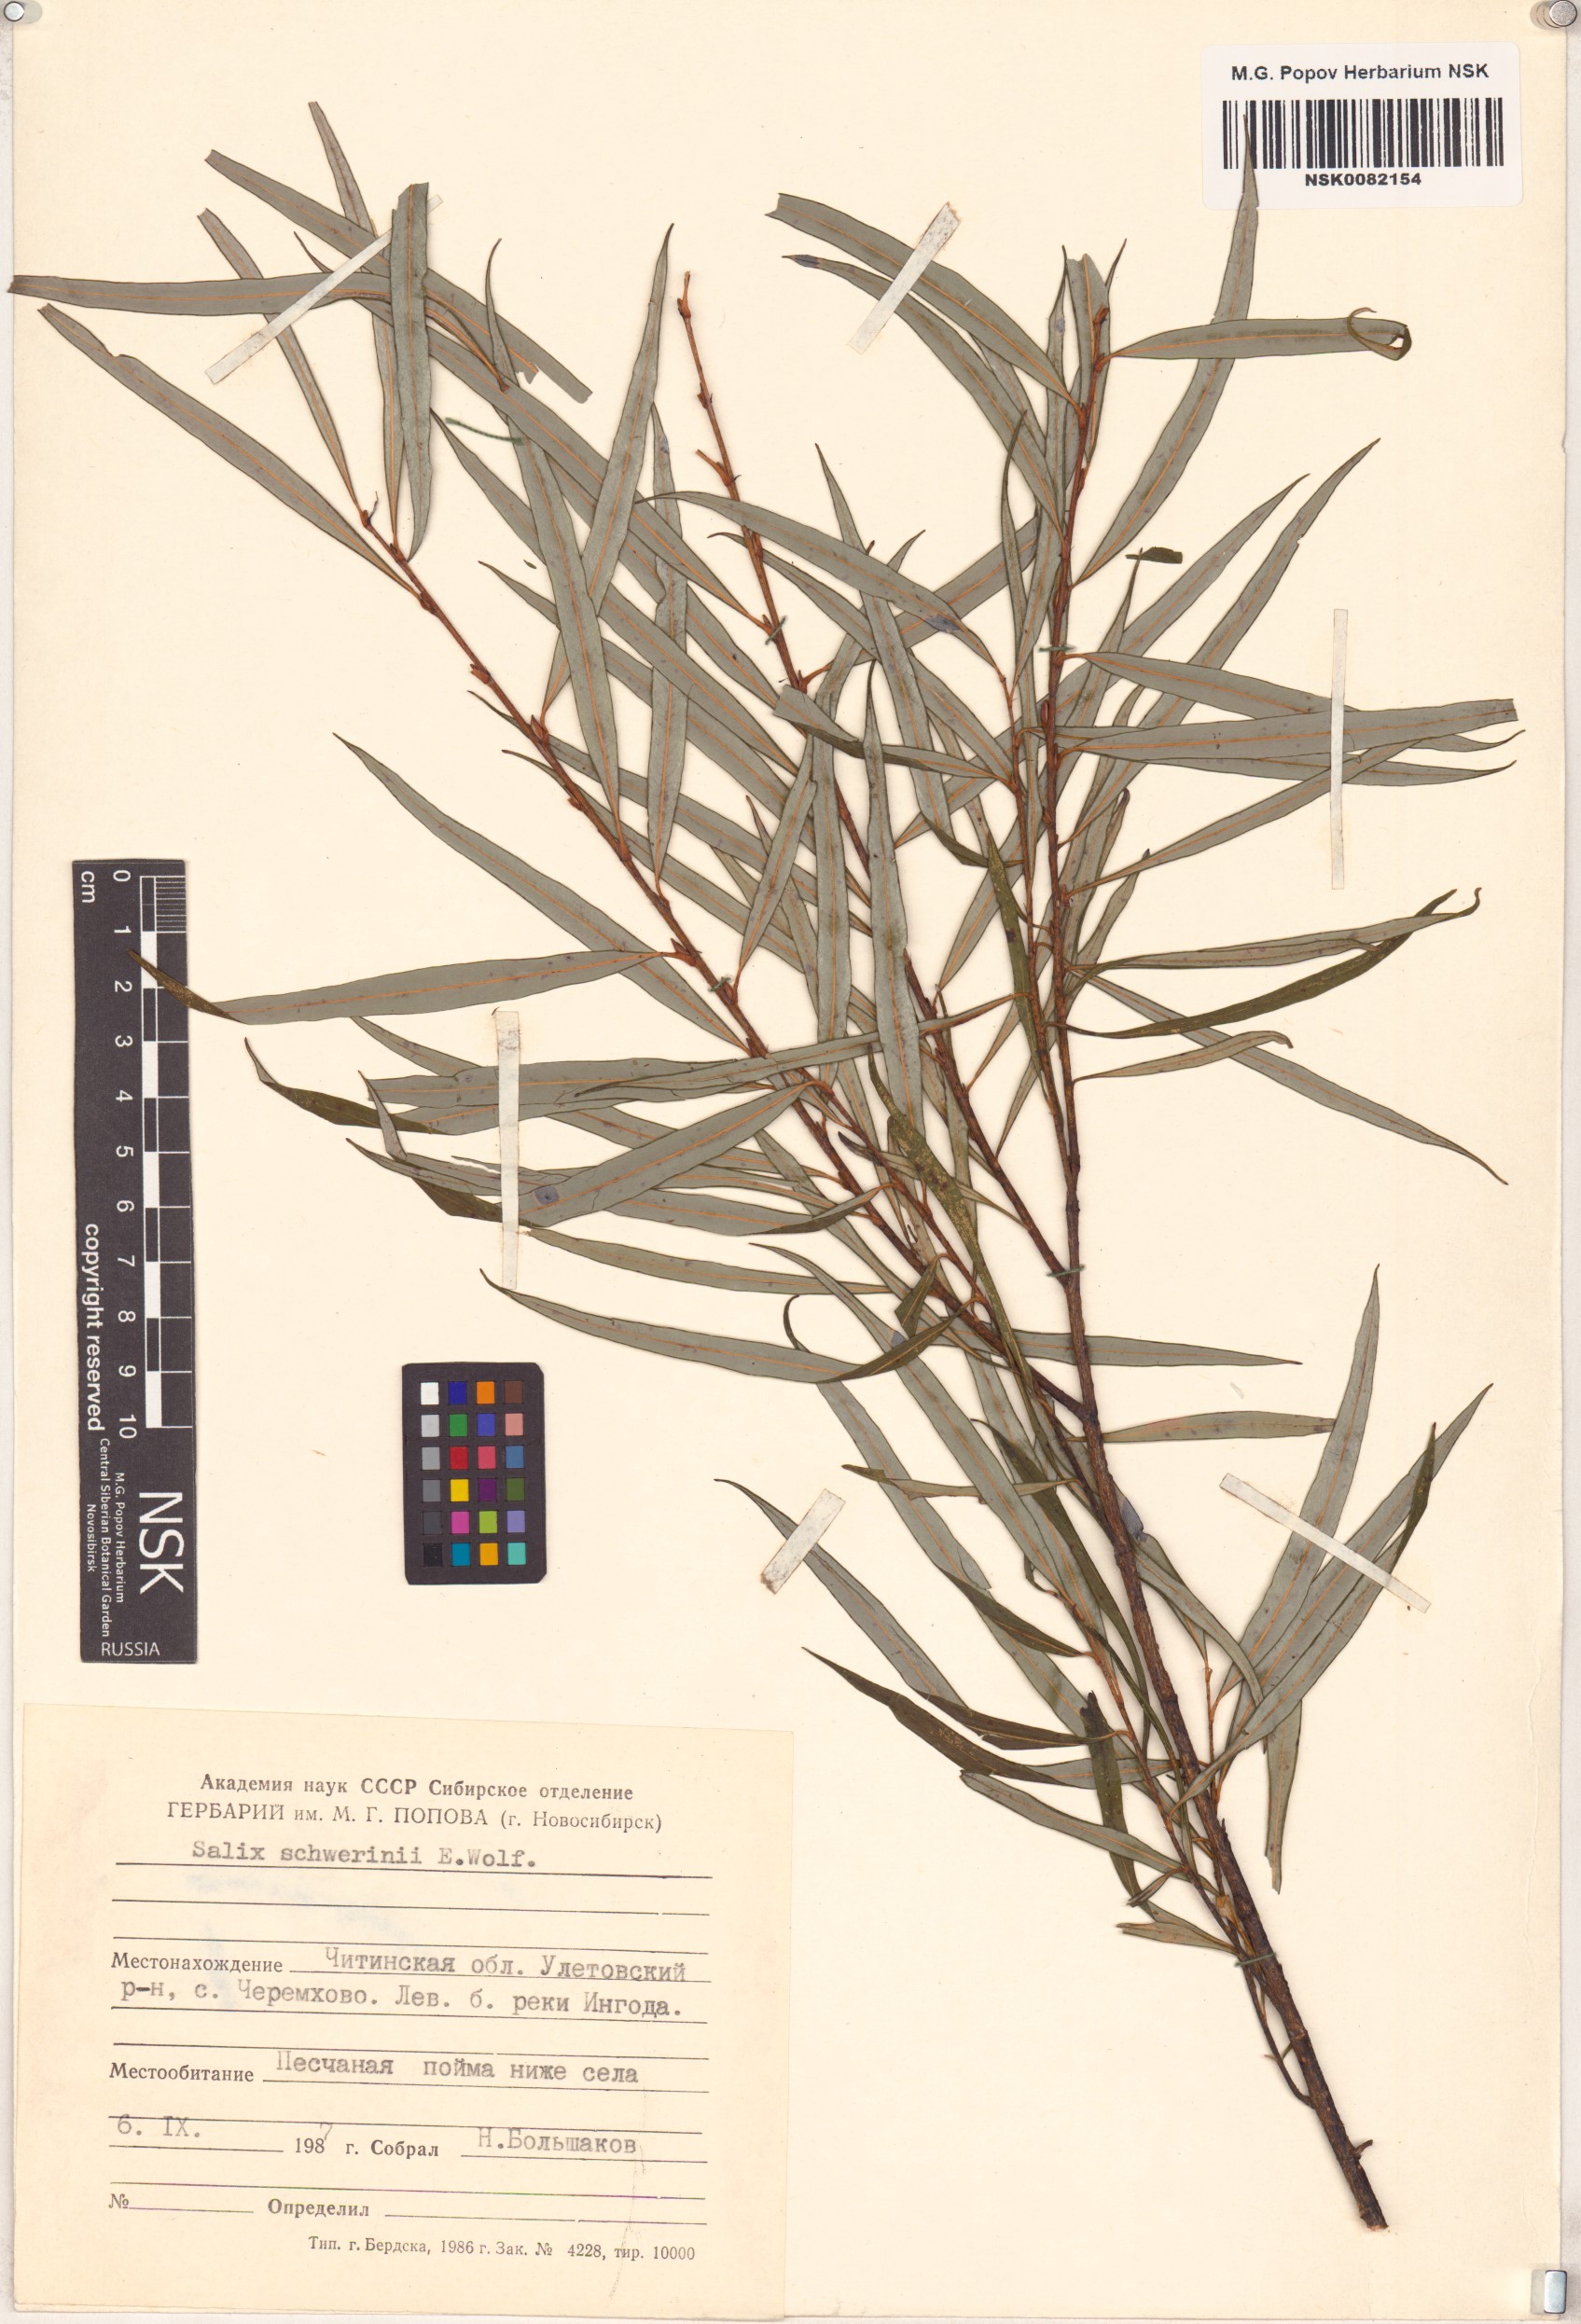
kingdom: Plantae
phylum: Tracheophyta
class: Magnoliopsida
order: Malpighiales
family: Salicaceae
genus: Salix
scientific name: Salix schwerinii
